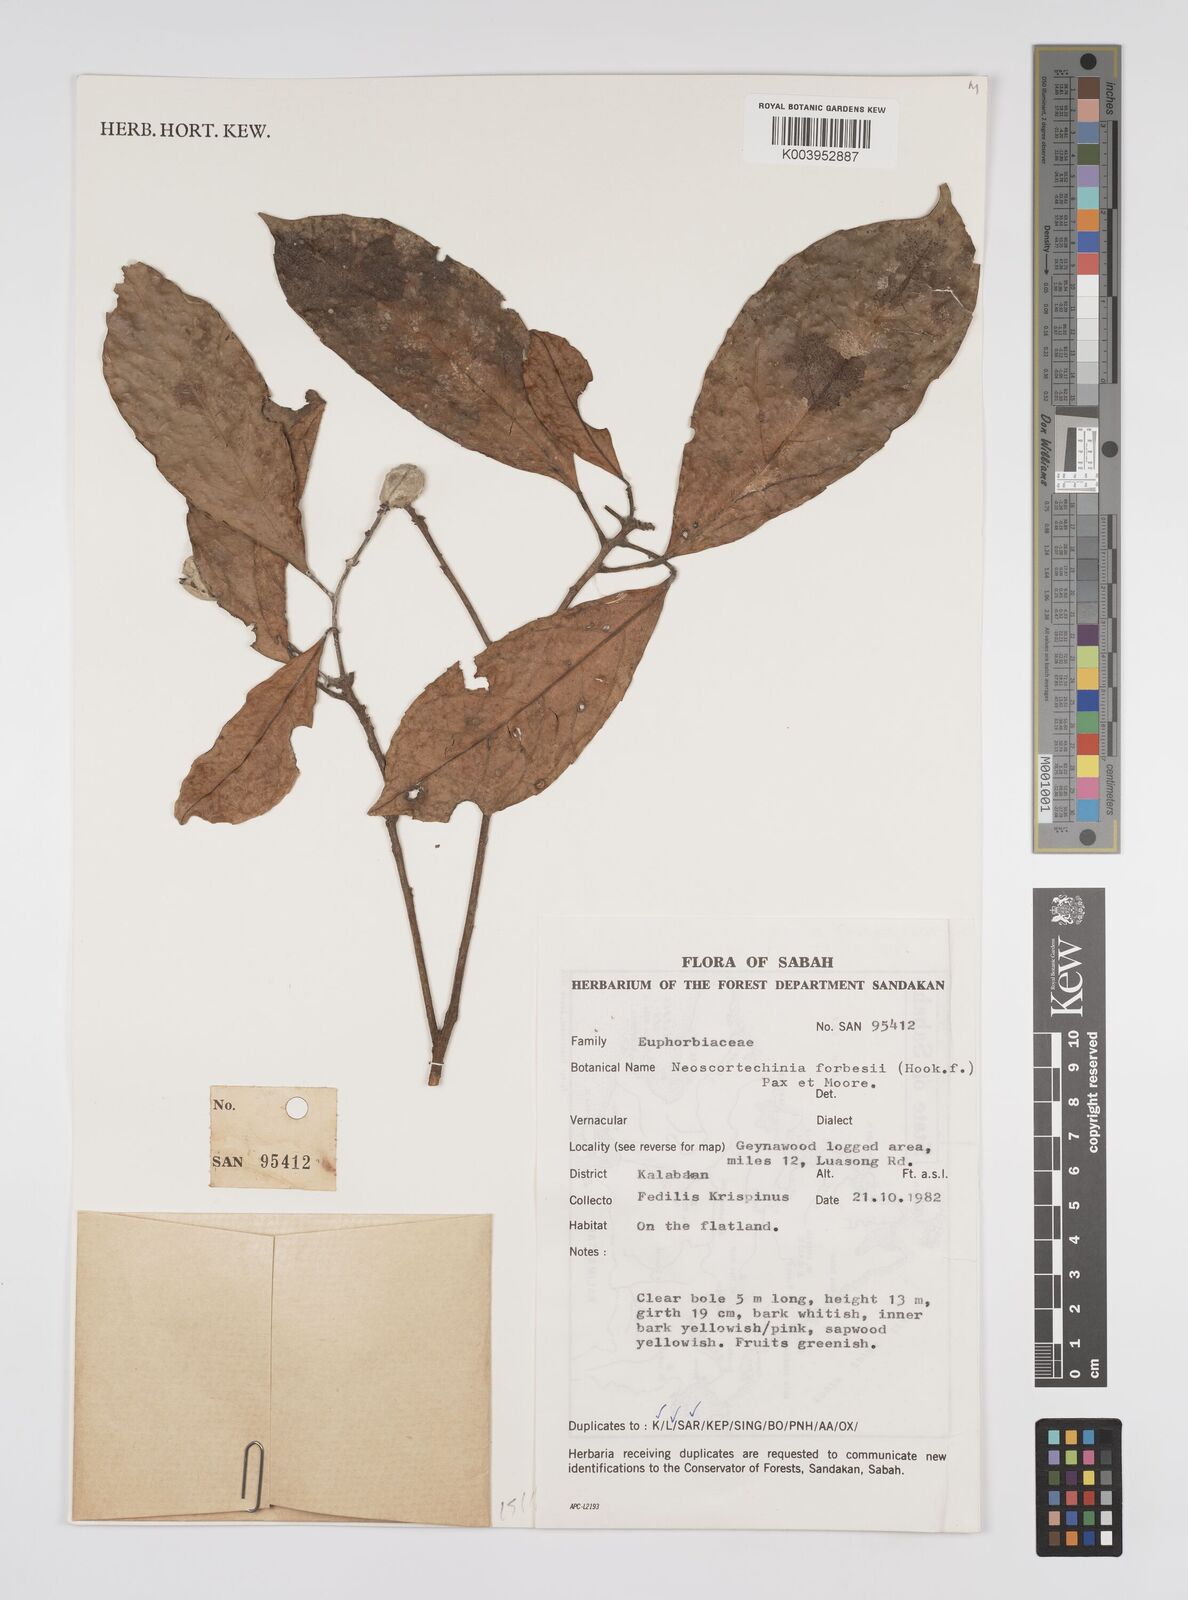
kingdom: Plantae
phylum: Tracheophyta
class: Magnoliopsida
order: Malpighiales
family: Euphorbiaceae
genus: Neoscortechinia
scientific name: Neoscortechinia philippinensis
